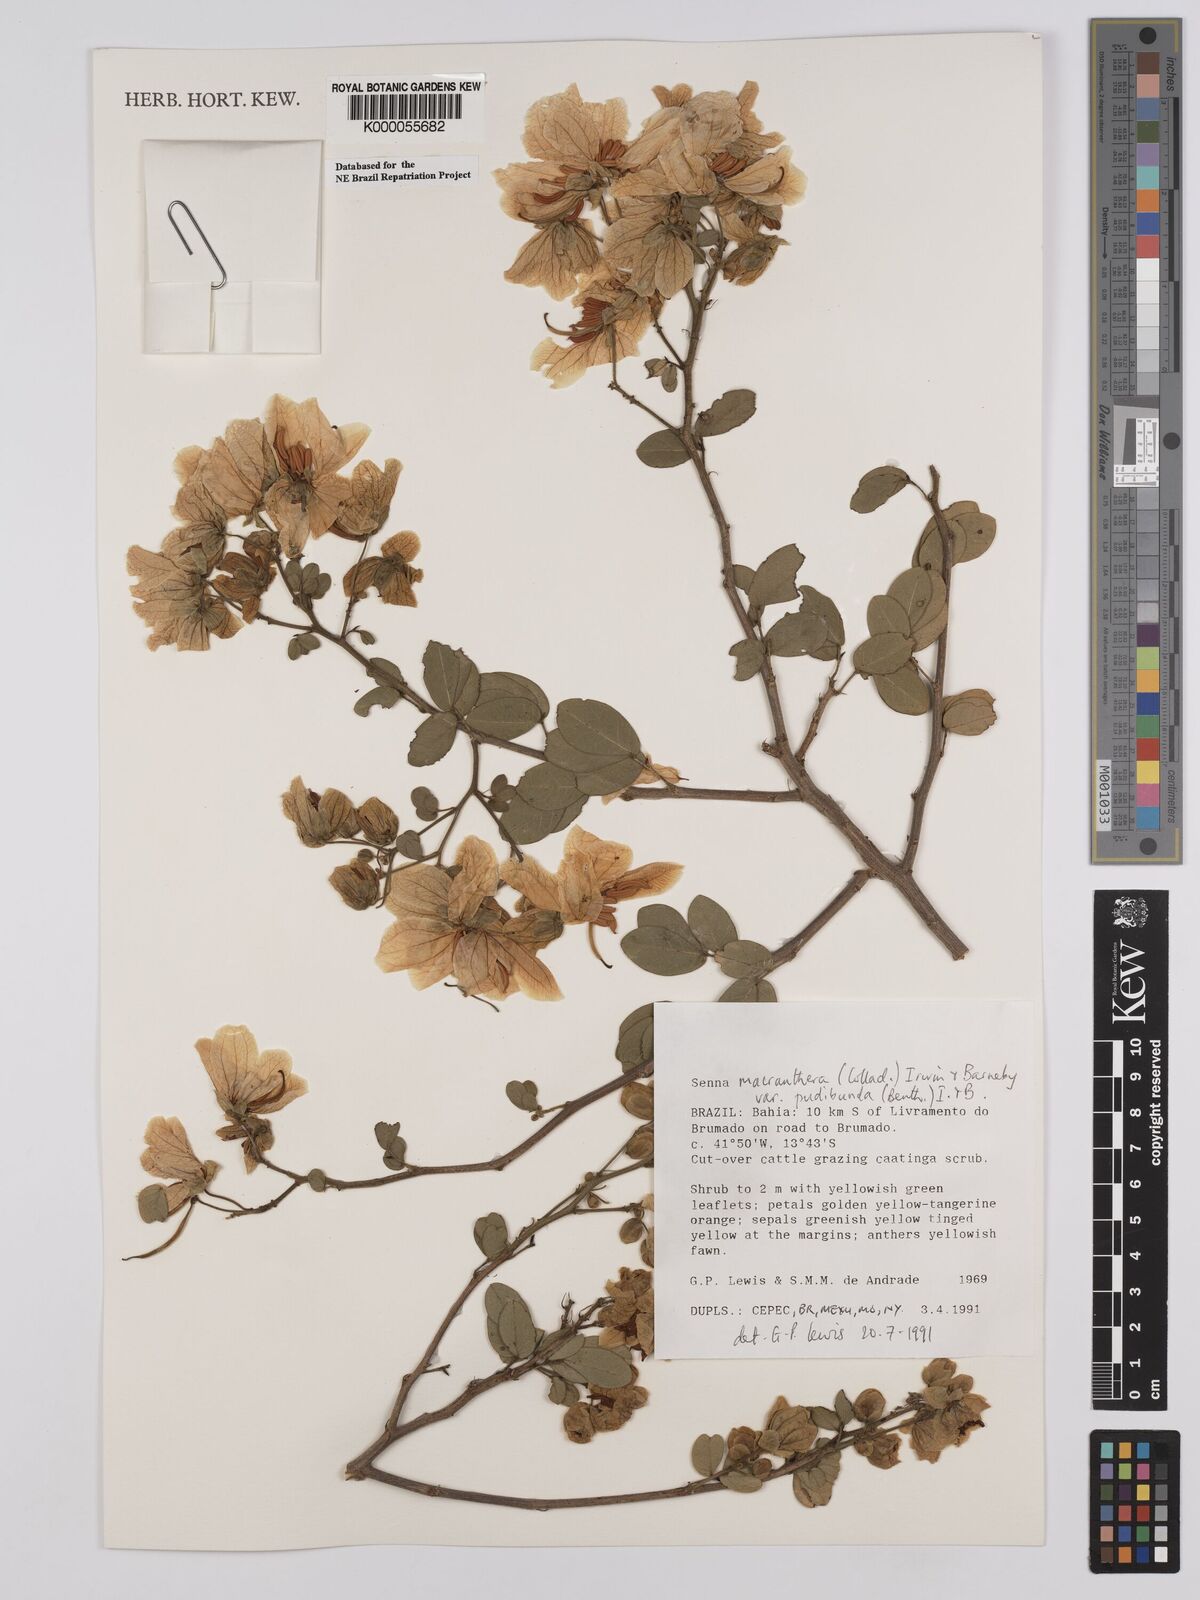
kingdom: Plantae
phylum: Tracheophyta
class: Magnoliopsida
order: Fabales
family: Fabaceae
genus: Senna
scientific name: Senna macranthera
